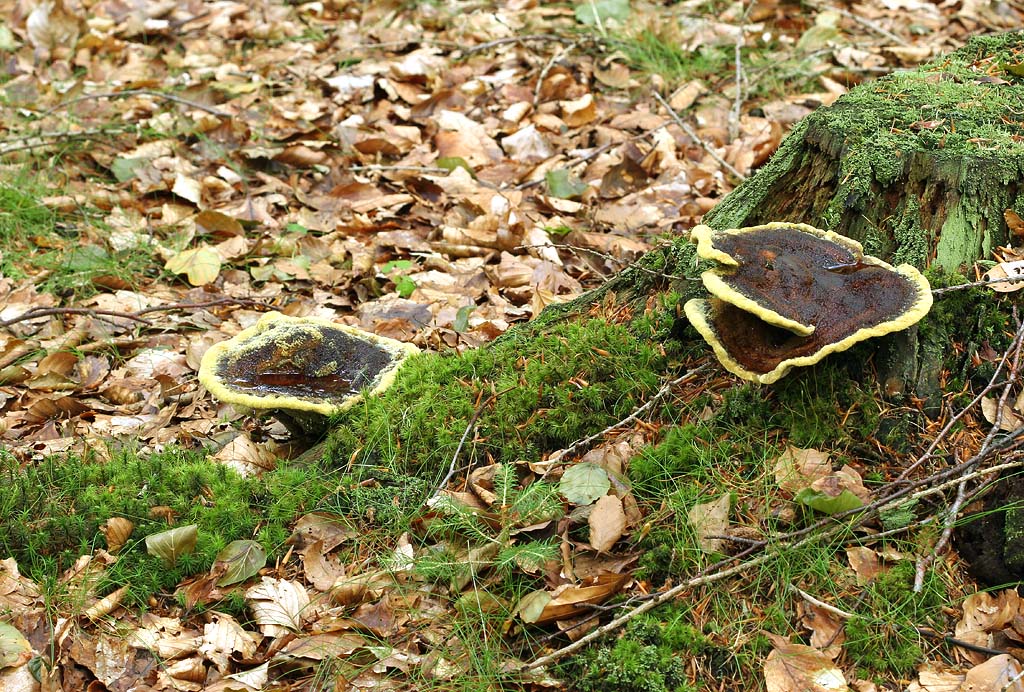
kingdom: Fungi
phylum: Basidiomycota
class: Agaricomycetes
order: Polyporales
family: Laetiporaceae
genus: Phaeolus
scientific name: Phaeolus schweinitzii
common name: brunporesvamp
